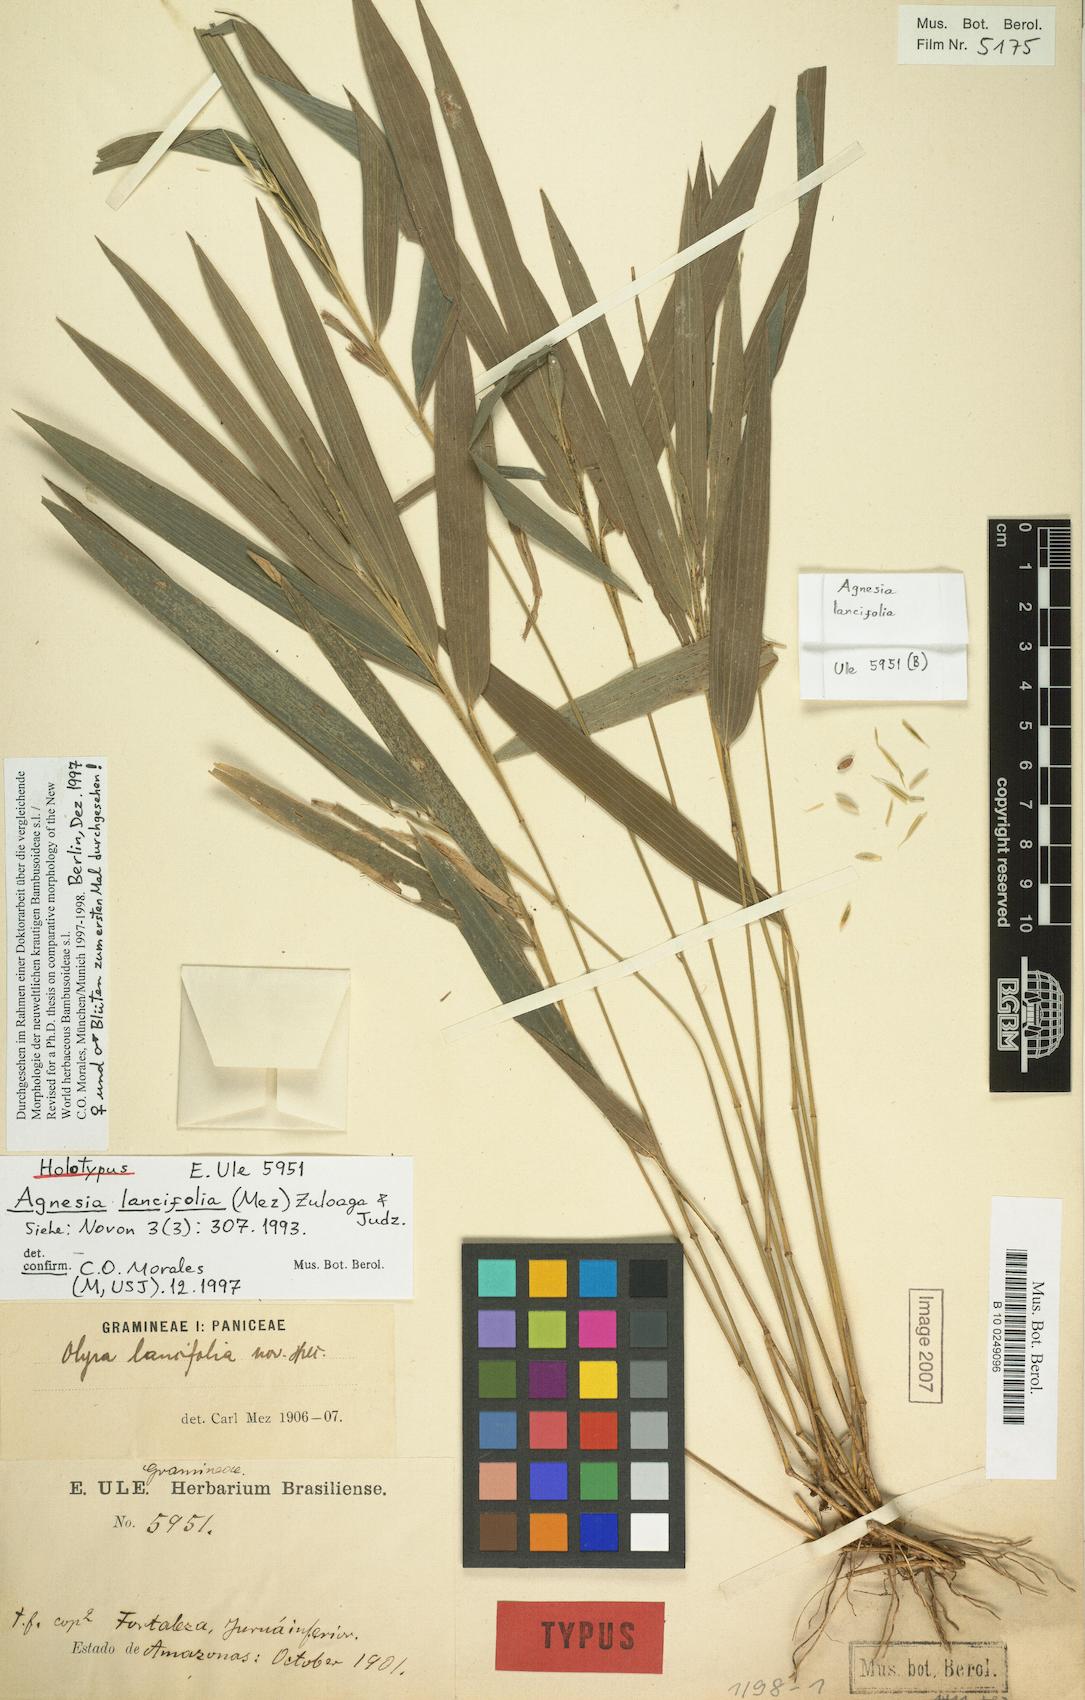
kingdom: Plantae
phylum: Tracheophyta
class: Liliopsida
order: Poales
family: Poaceae
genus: Agnesia
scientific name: Agnesia lancifolia
